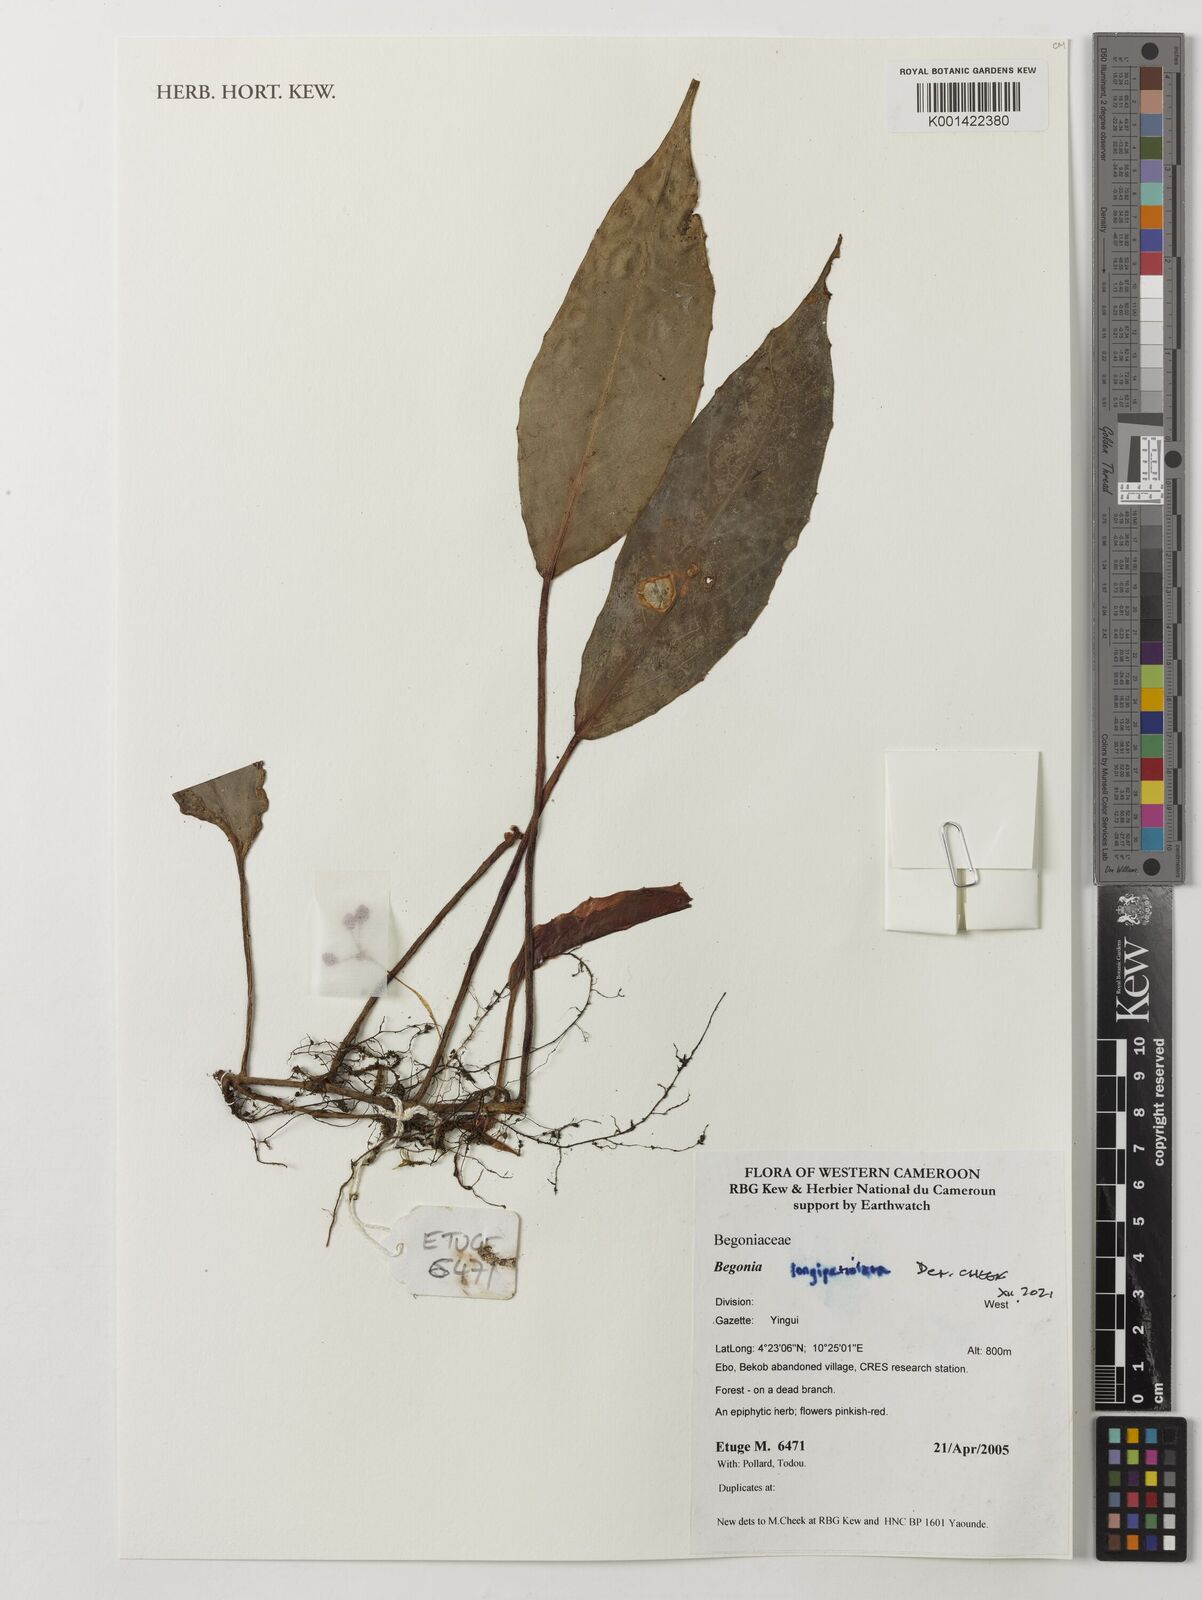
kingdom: Plantae
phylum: Tracheophyta
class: Magnoliopsida
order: Cucurbitales
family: Begoniaceae
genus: Begonia
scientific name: Begonia longipetiolata
